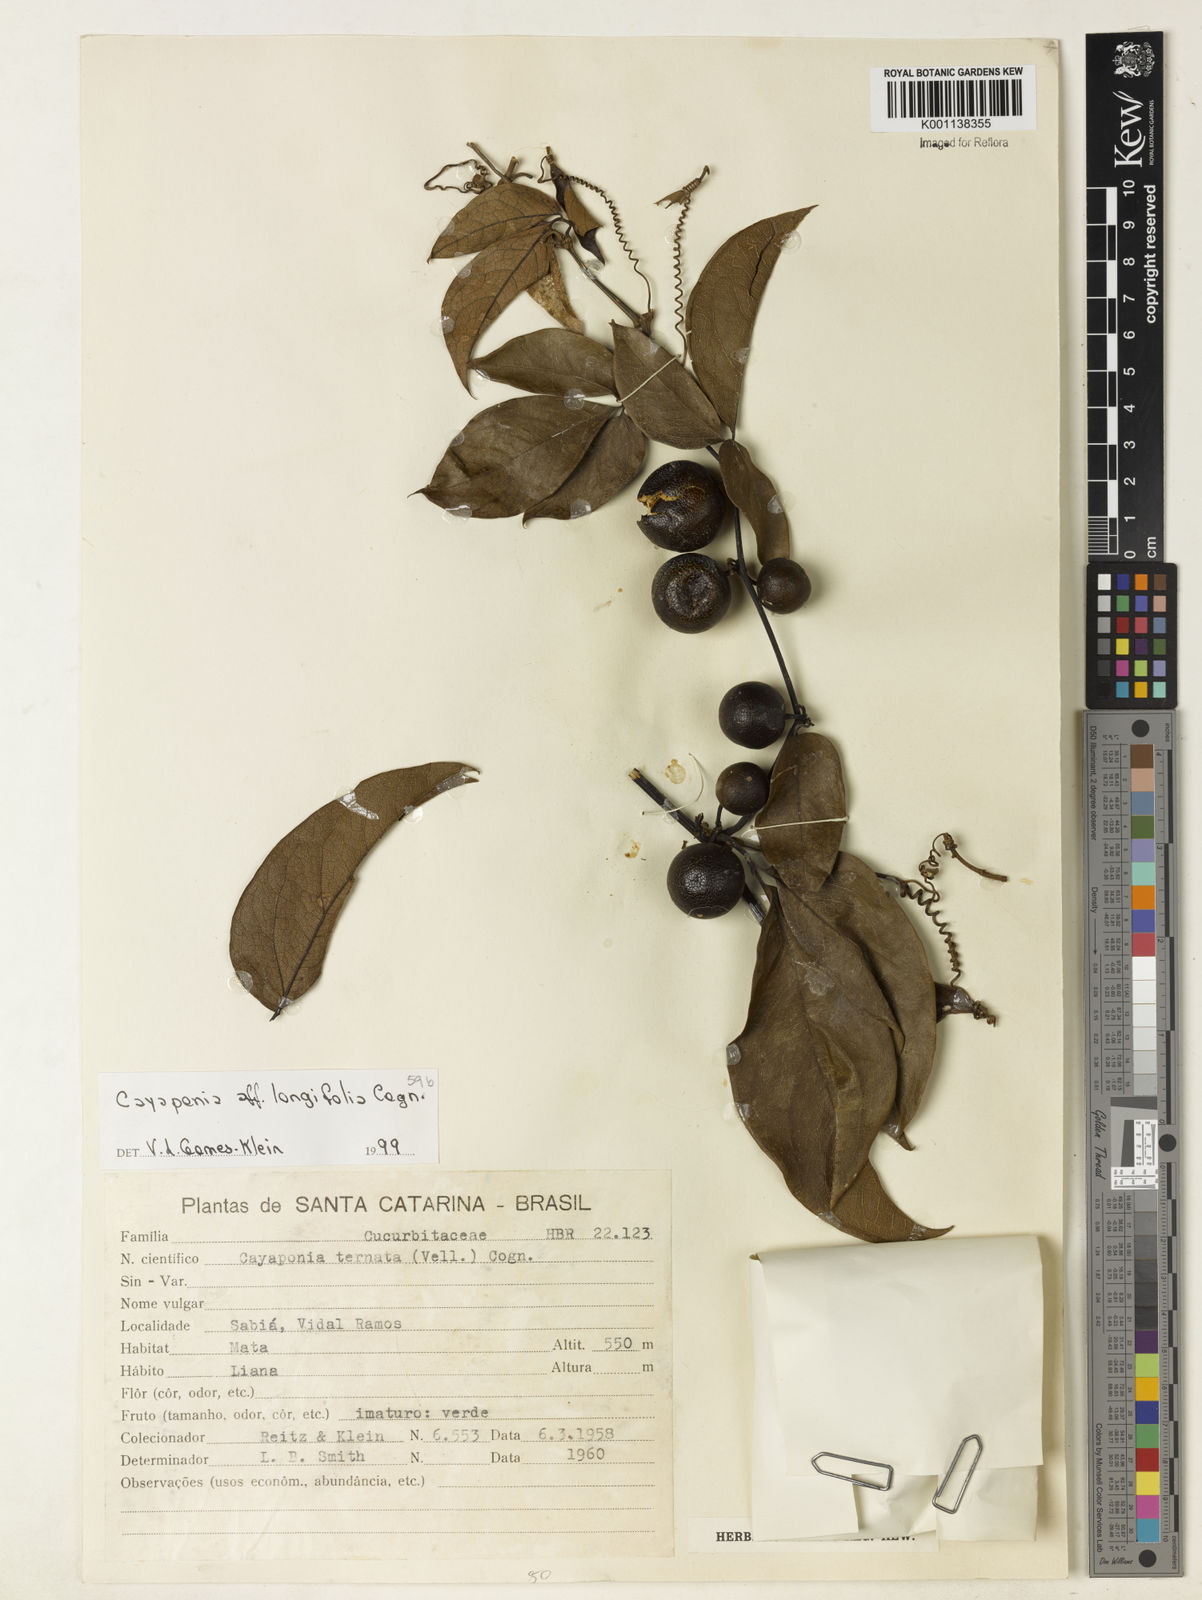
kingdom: Plantae
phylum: Tracheophyta
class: Magnoliopsida
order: Cucurbitales
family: Cucurbitaceae
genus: Cayaponia
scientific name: Cayaponia longifolia
